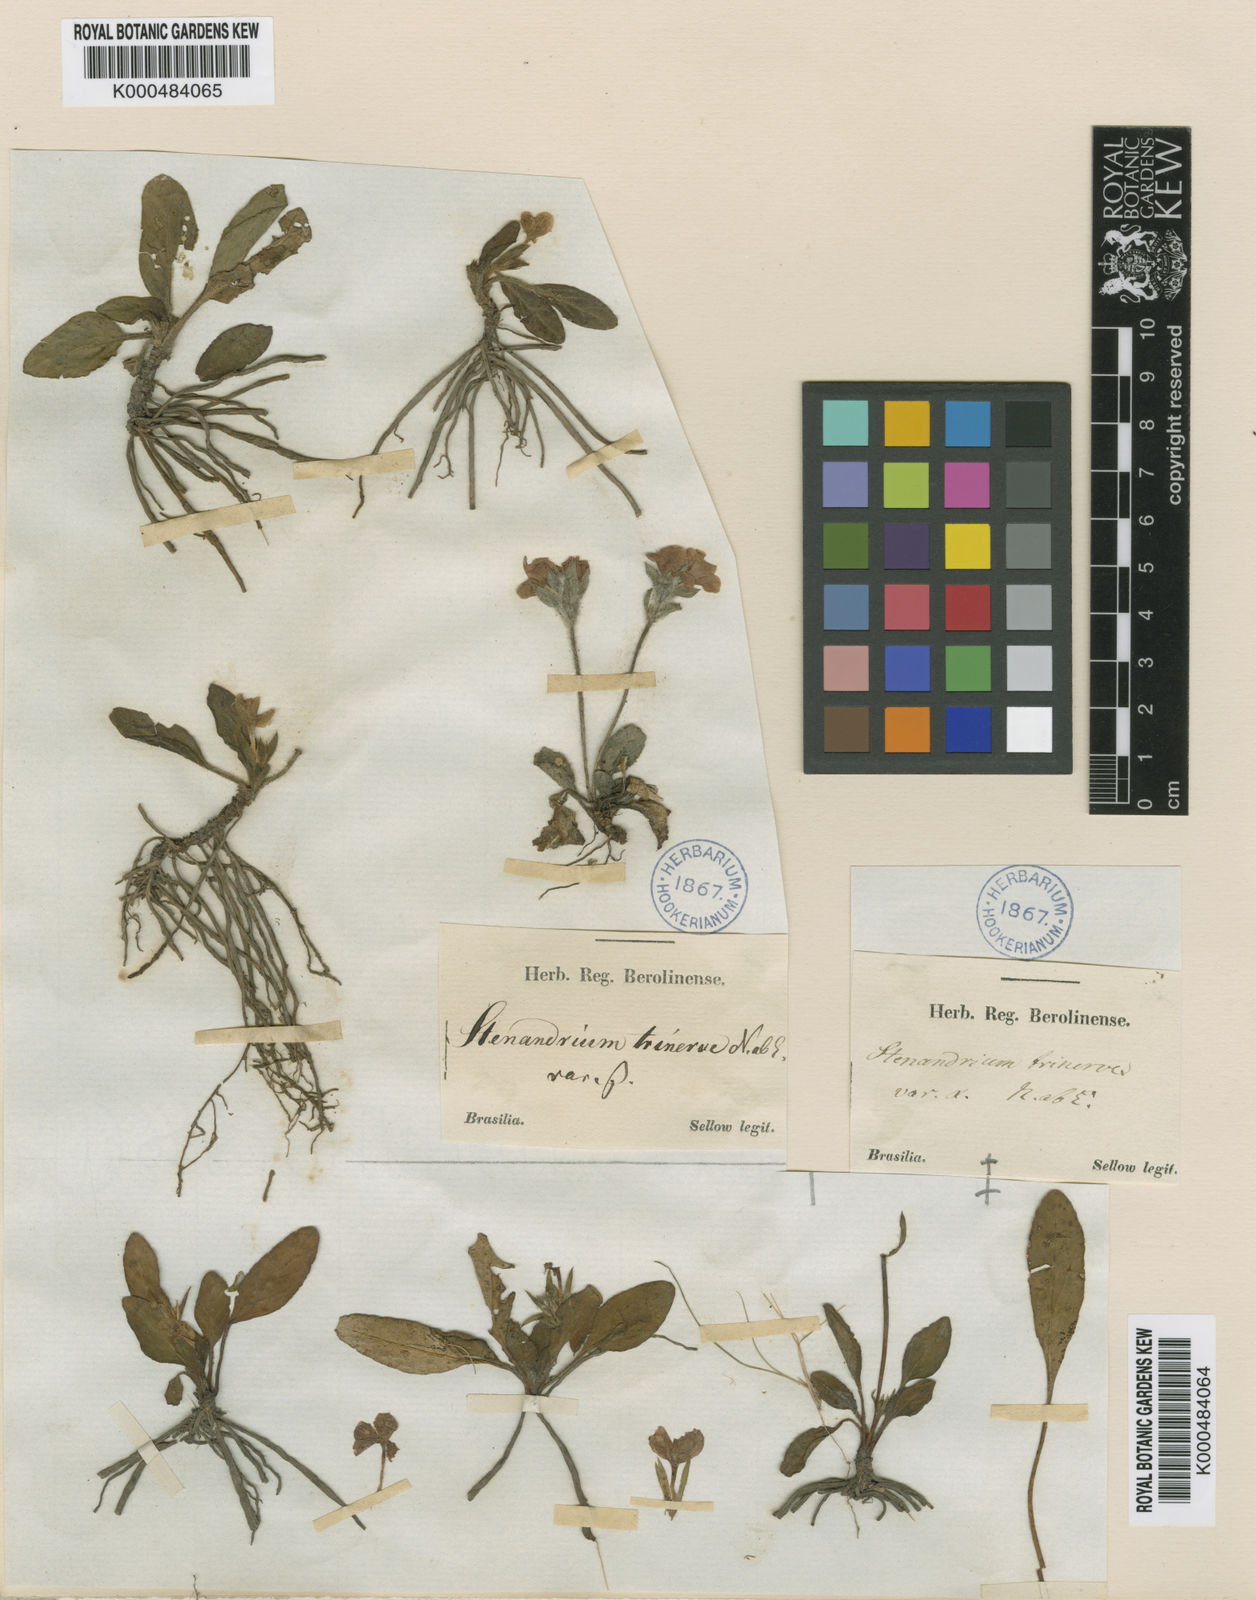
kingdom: Plantae
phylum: Tracheophyta
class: Magnoliopsida
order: Lamiales
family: Acanthaceae
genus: Stenandrium
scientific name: Stenandrium dulce
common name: Pinklet
